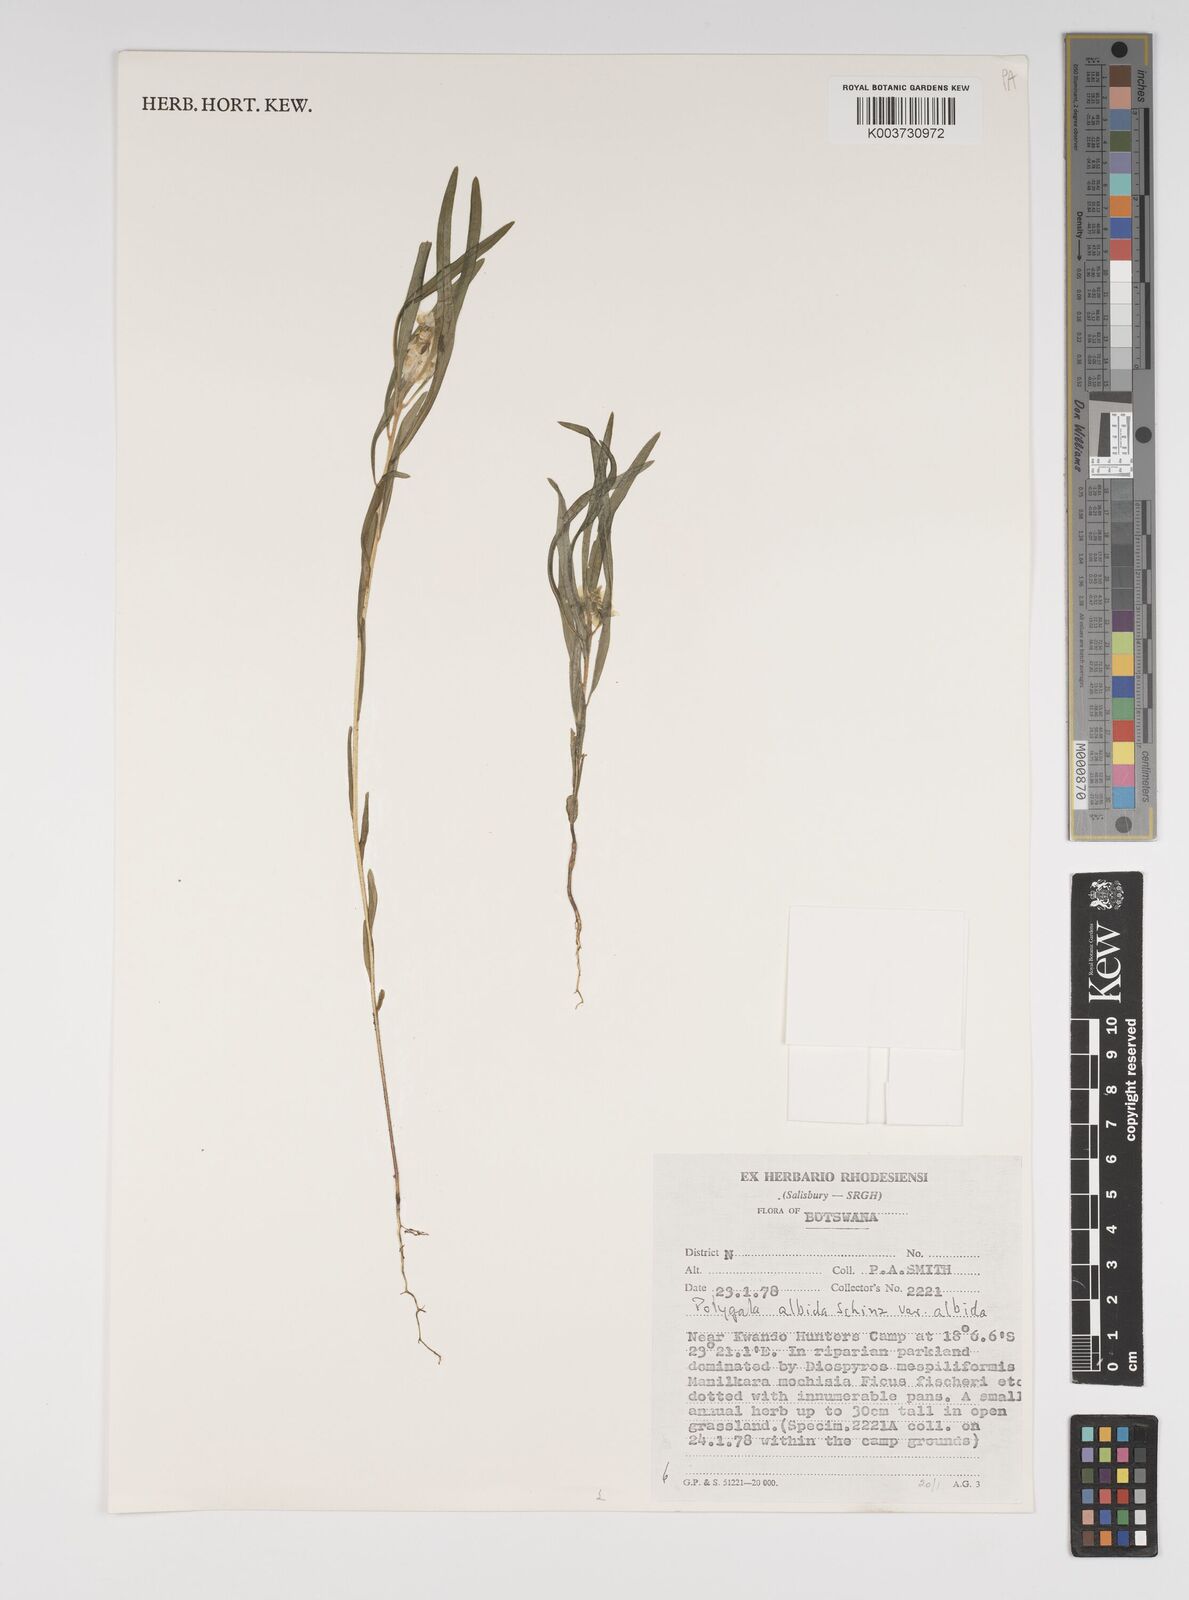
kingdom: Plantae
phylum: Tracheophyta
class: Magnoliopsida
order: Fabales
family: Polygalaceae
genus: Polygala
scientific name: Polygala albida
